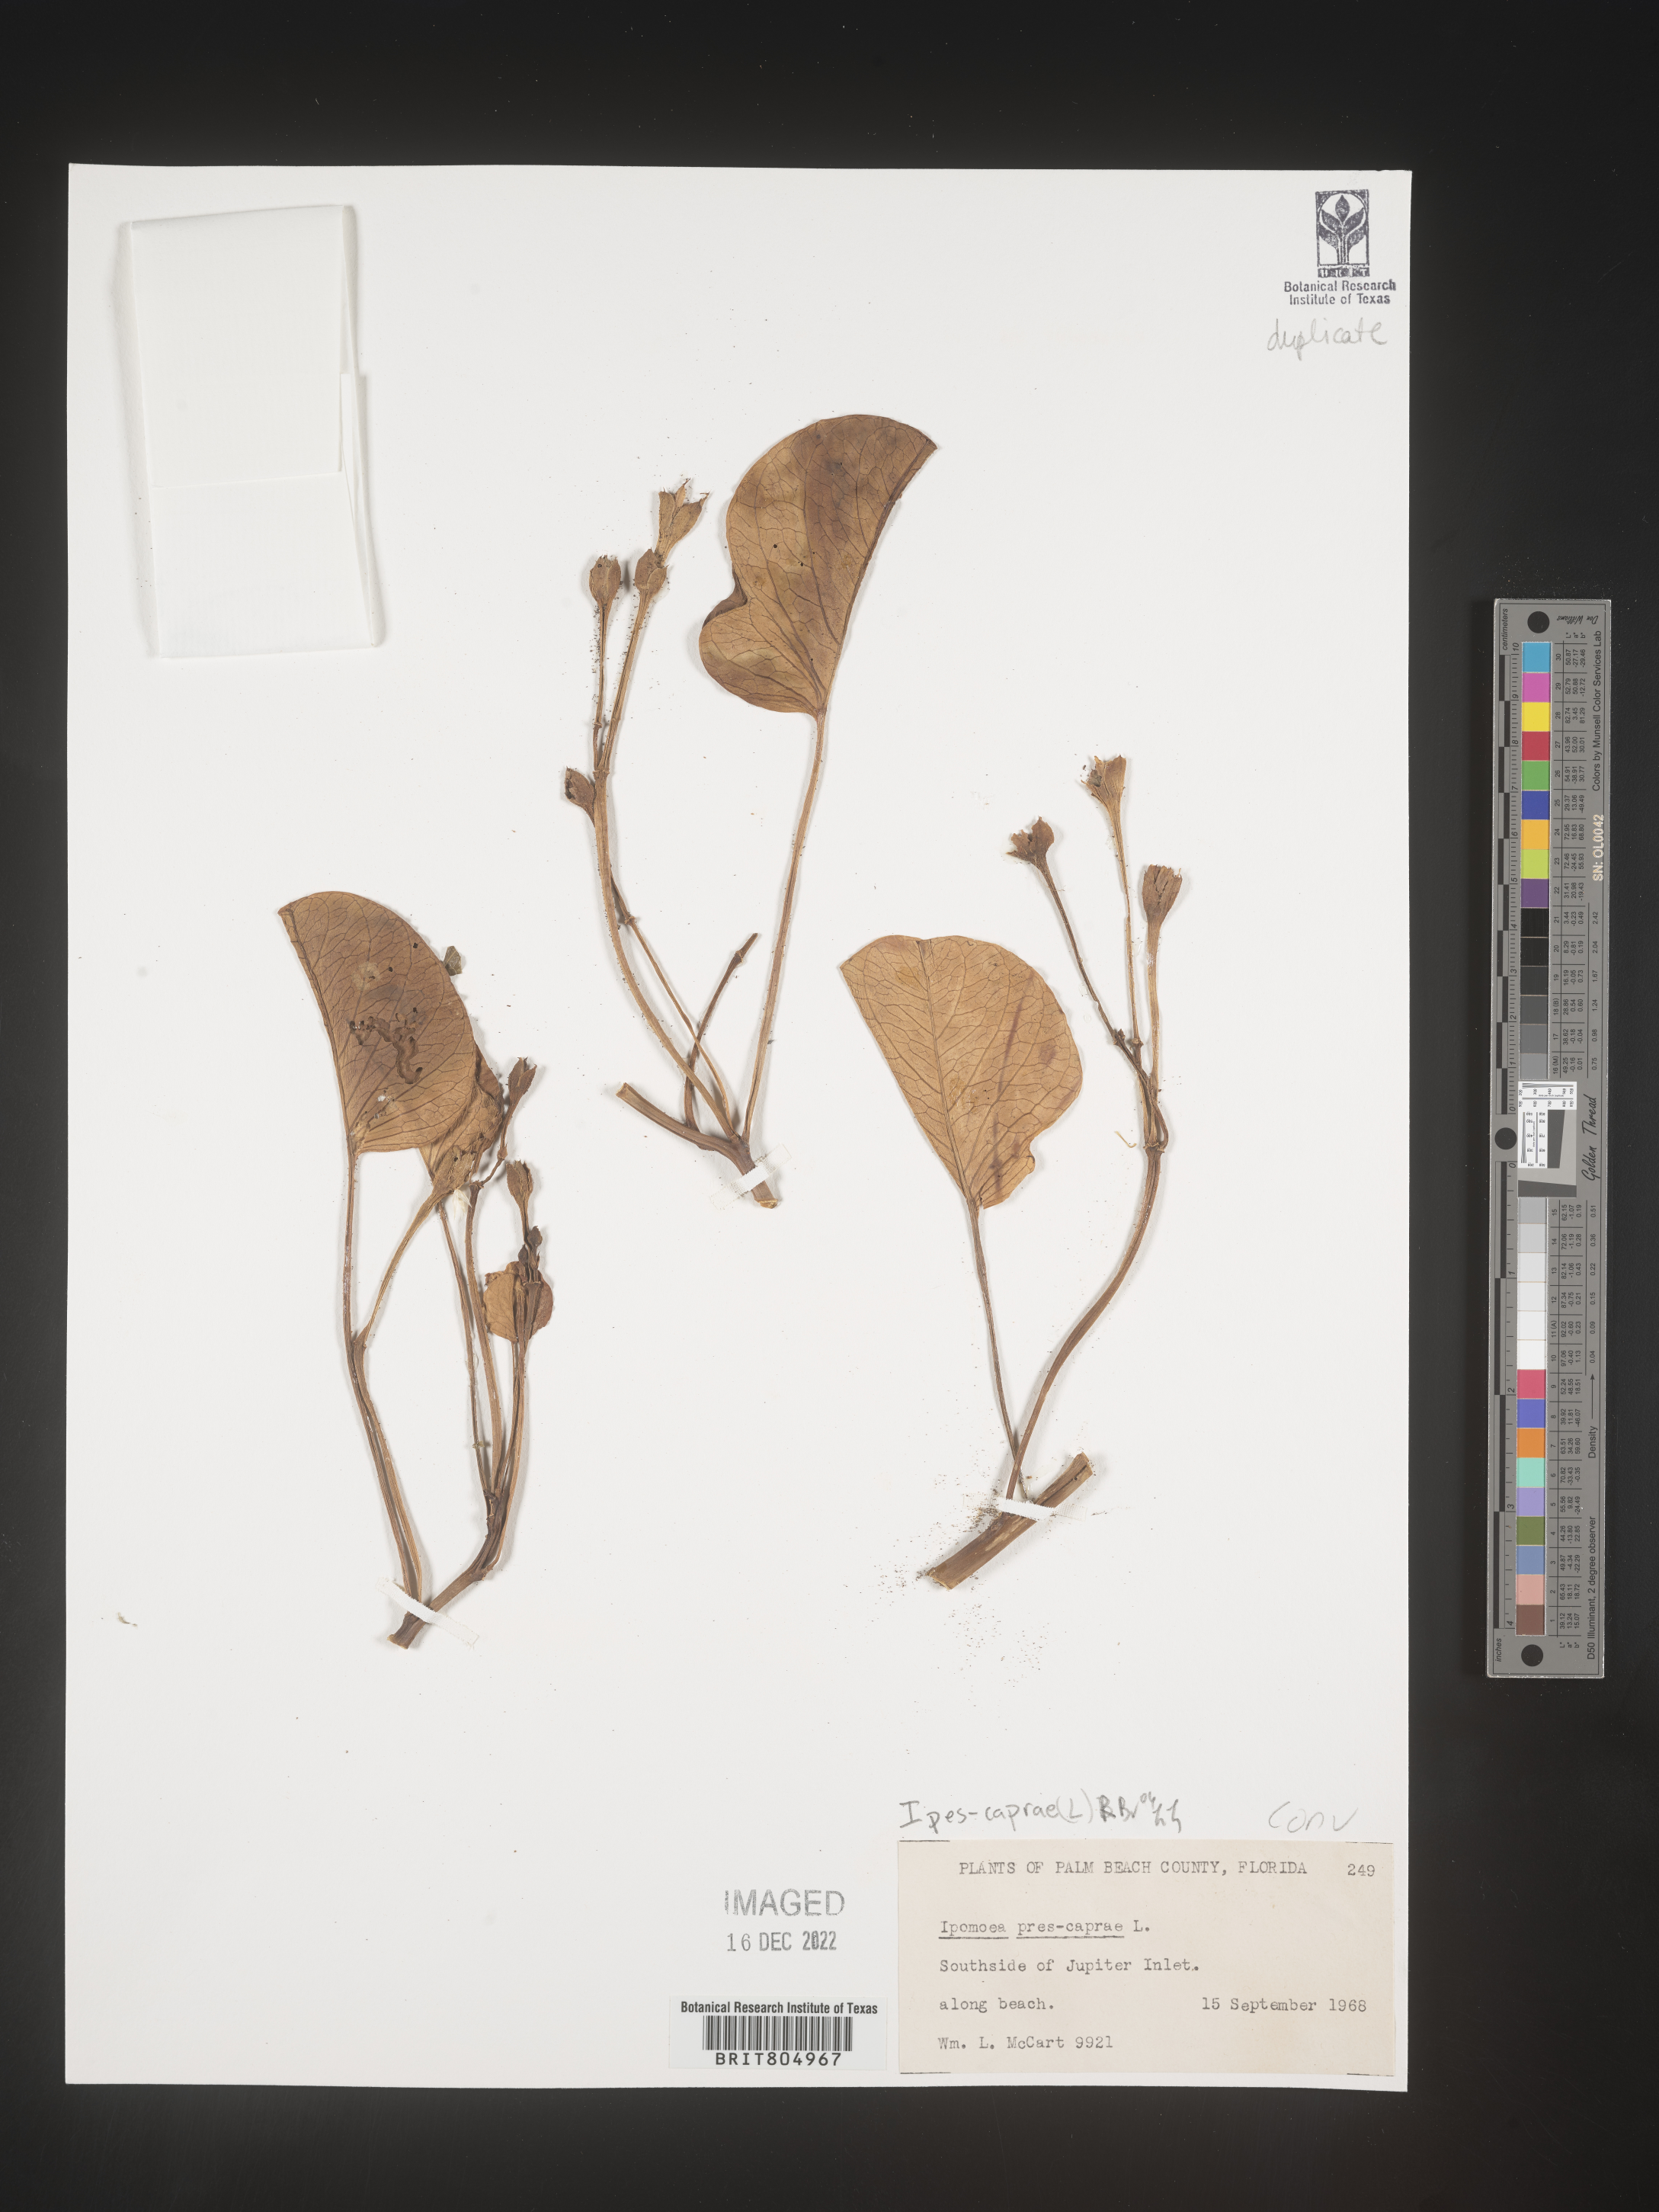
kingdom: Plantae
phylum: Tracheophyta
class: Magnoliopsida
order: Solanales
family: Convolvulaceae
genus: Ipomoea
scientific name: Ipomoea pes-caprae
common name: Beach morning glory
